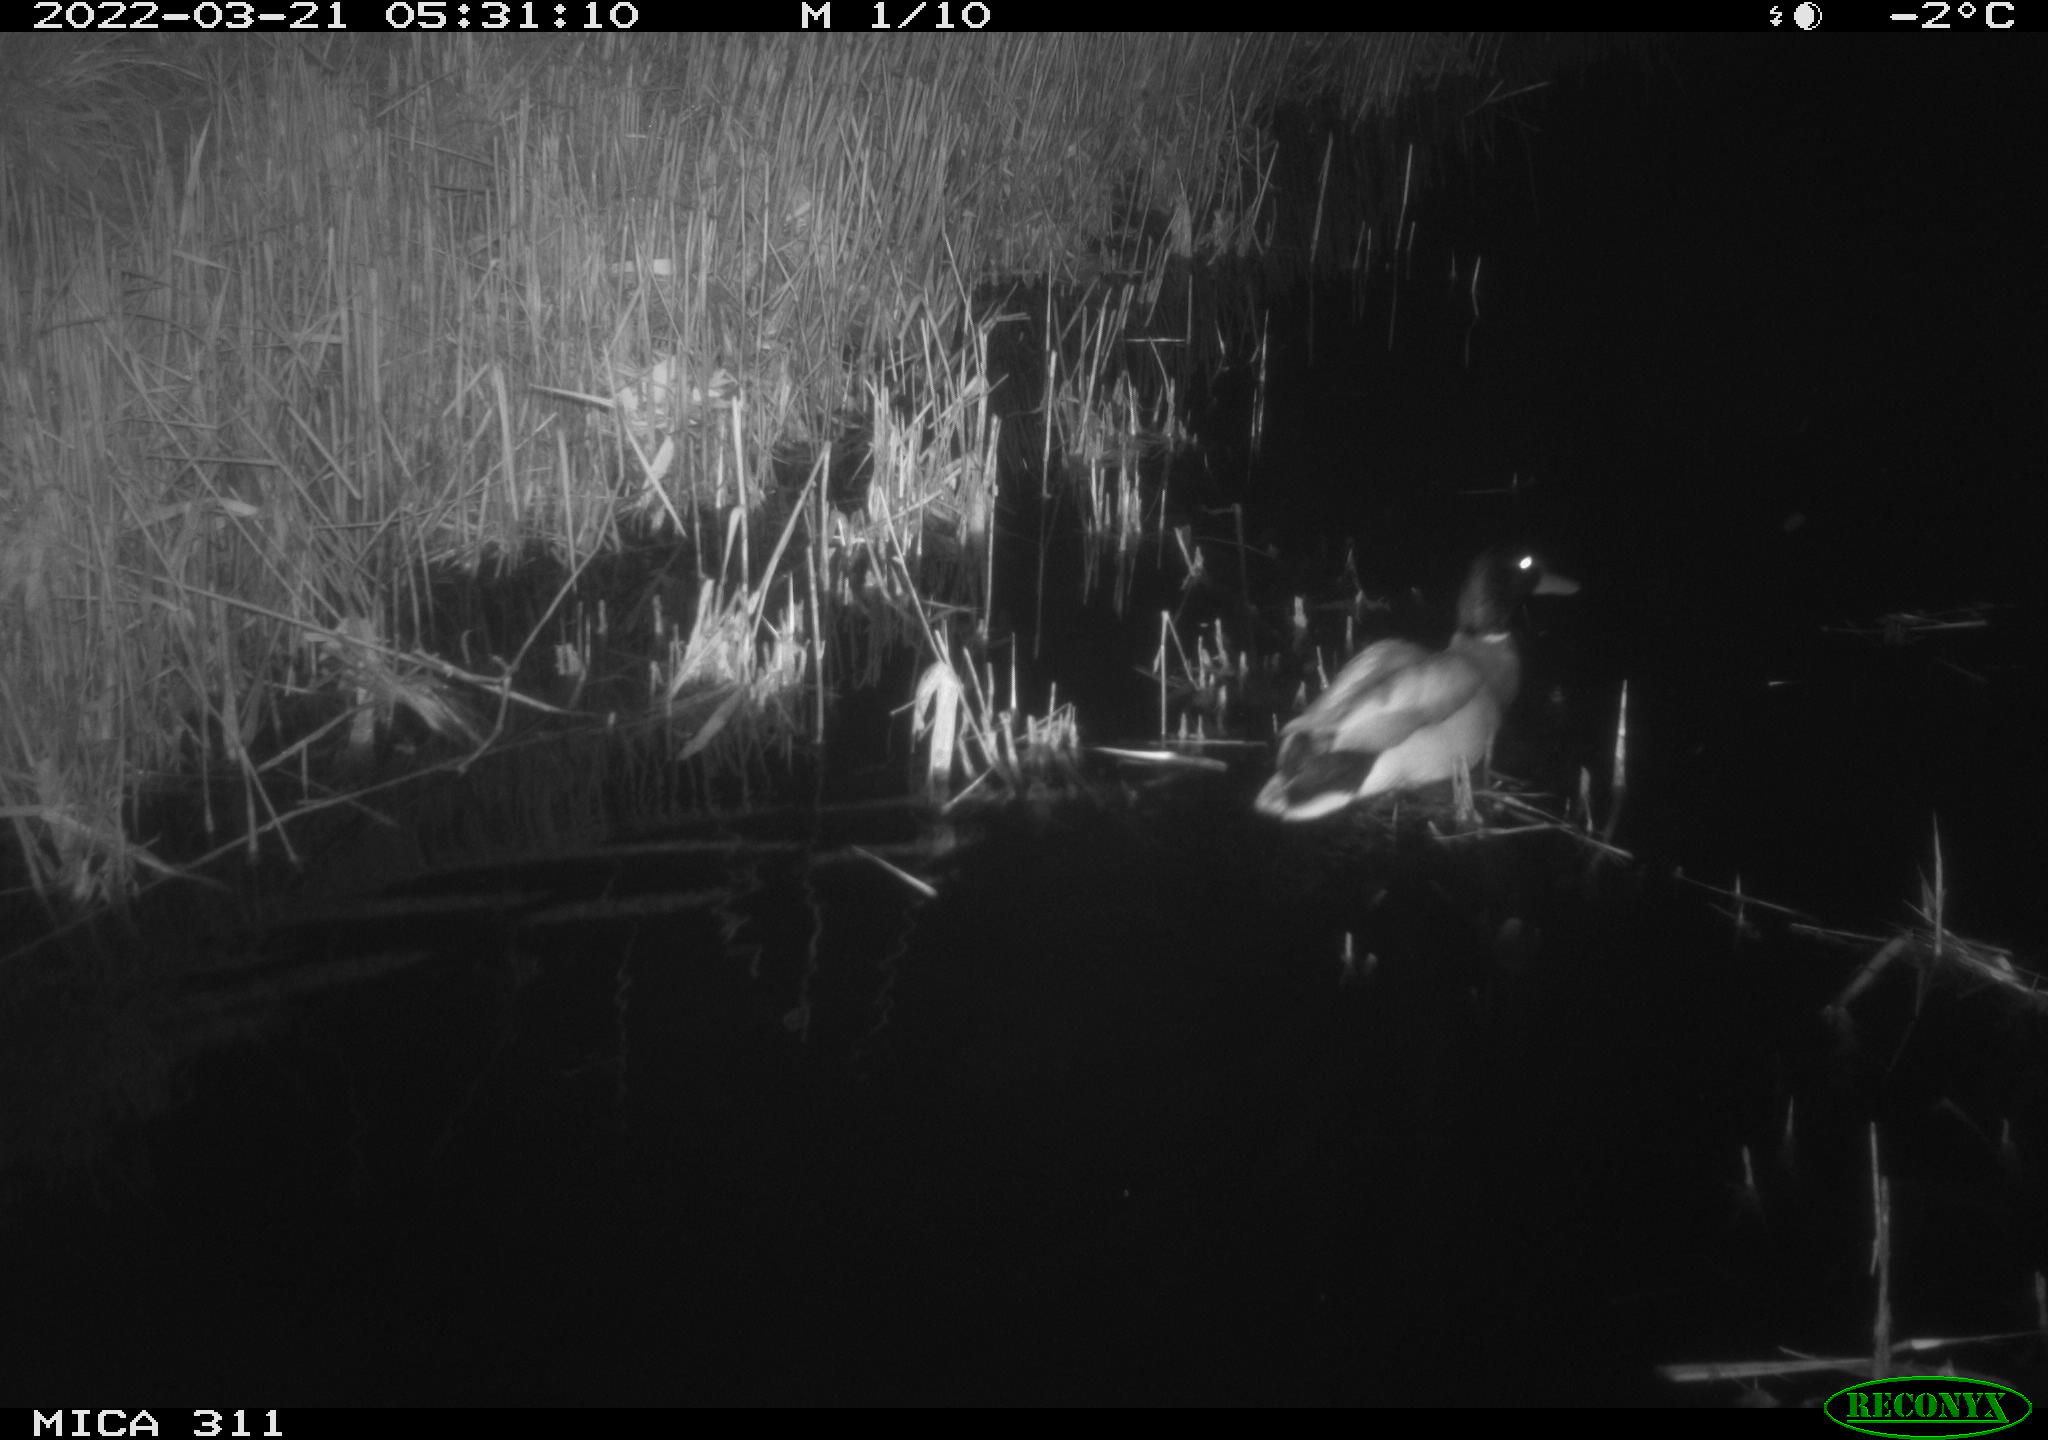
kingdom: Animalia
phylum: Chordata
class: Aves
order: Anseriformes
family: Anatidae
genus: Anas
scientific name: Anas
